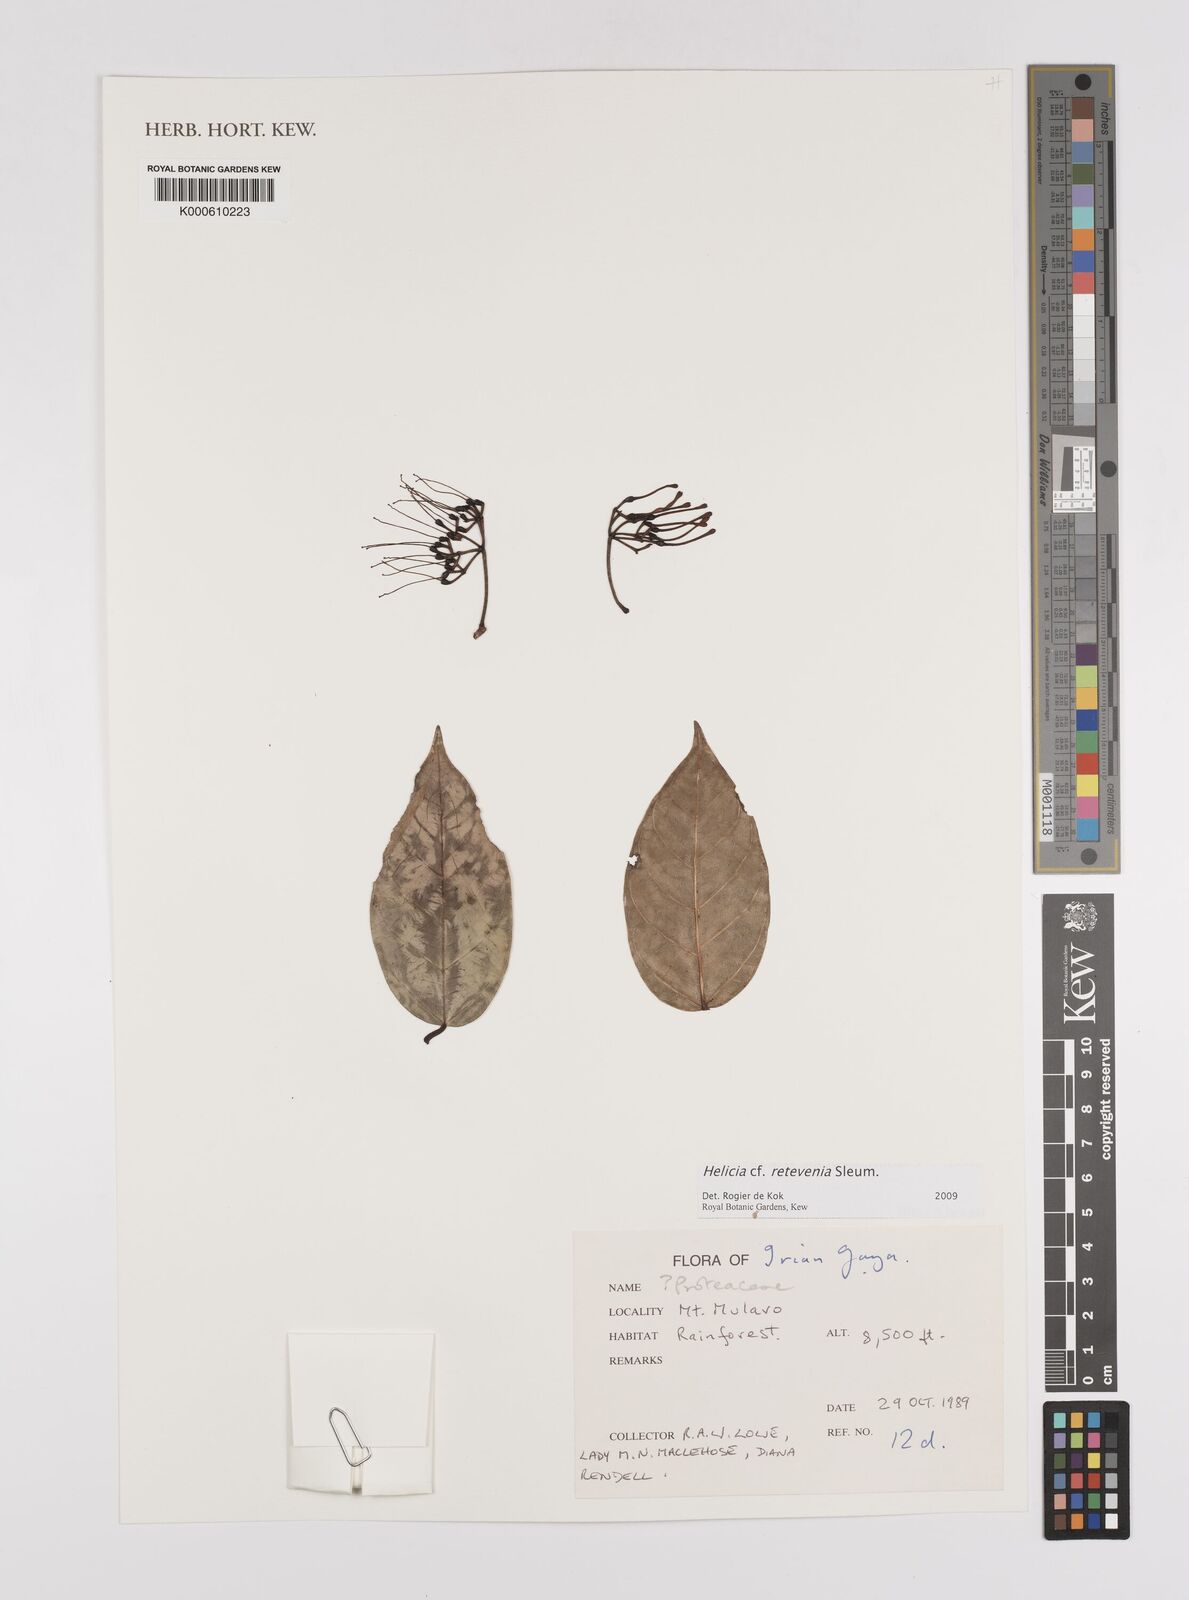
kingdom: Plantae
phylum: Tracheophyta
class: Magnoliopsida
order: Proteales
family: Proteaceae
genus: Helicia
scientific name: Helicia
